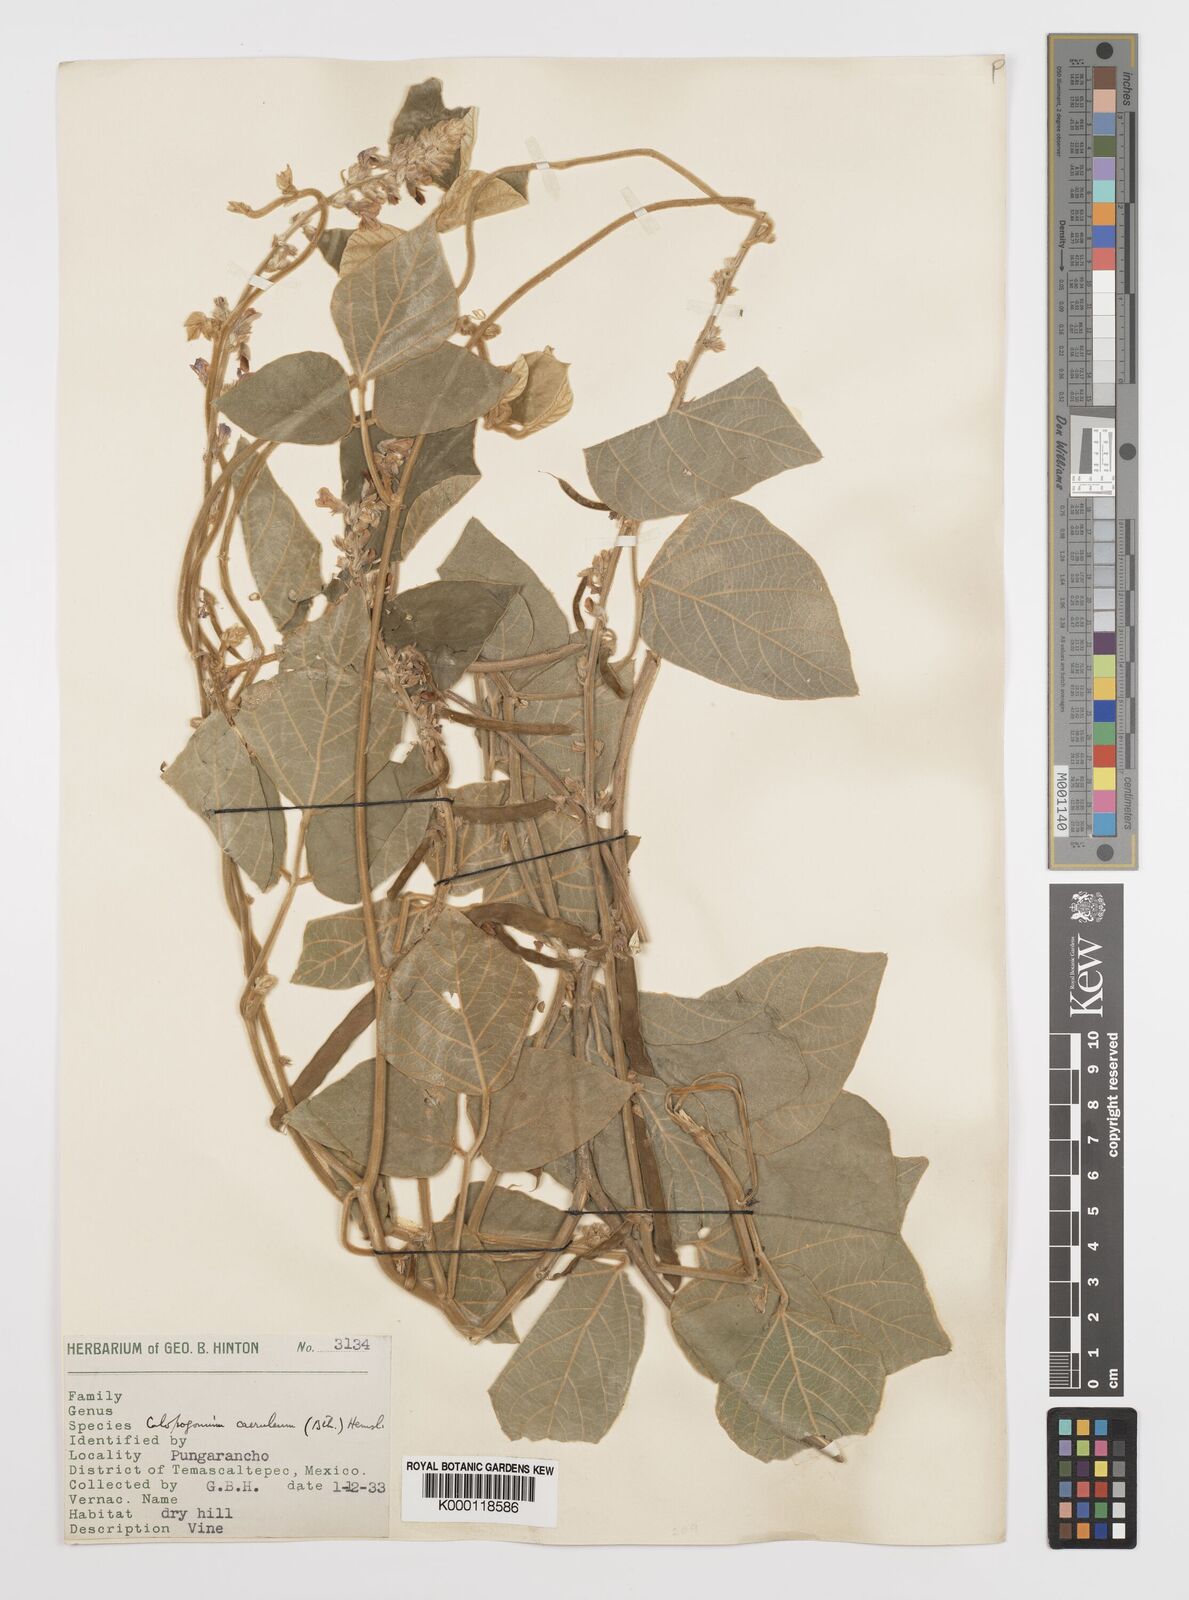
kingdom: Plantae
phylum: Tracheophyta
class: Magnoliopsida
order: Fabales
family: Fabaceae
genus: Calopogonium
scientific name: Calopogonium
